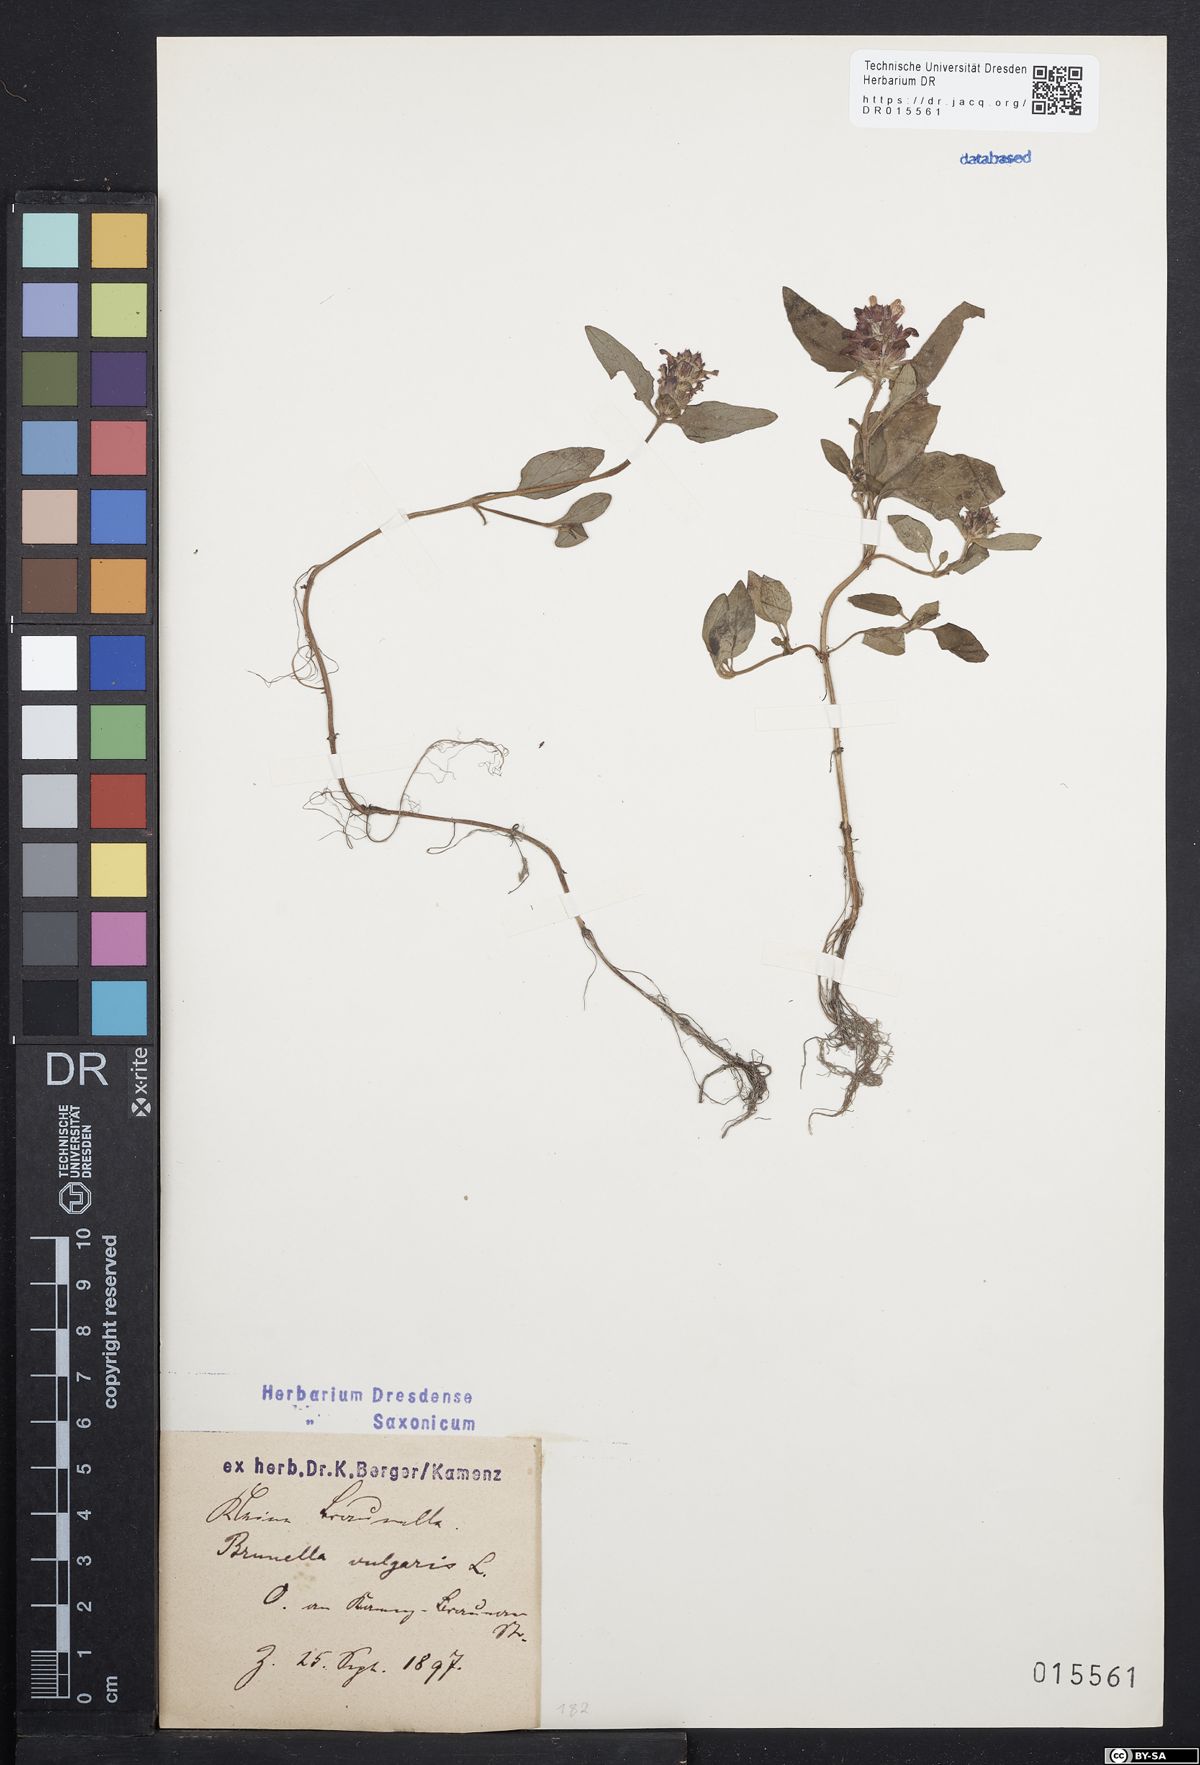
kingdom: Plantae
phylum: Tracheophyta
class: Magnoliopsida
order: Lamiales
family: Lamiaceae
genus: Prunella
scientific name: Prunella vulgaris
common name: Heal-all
